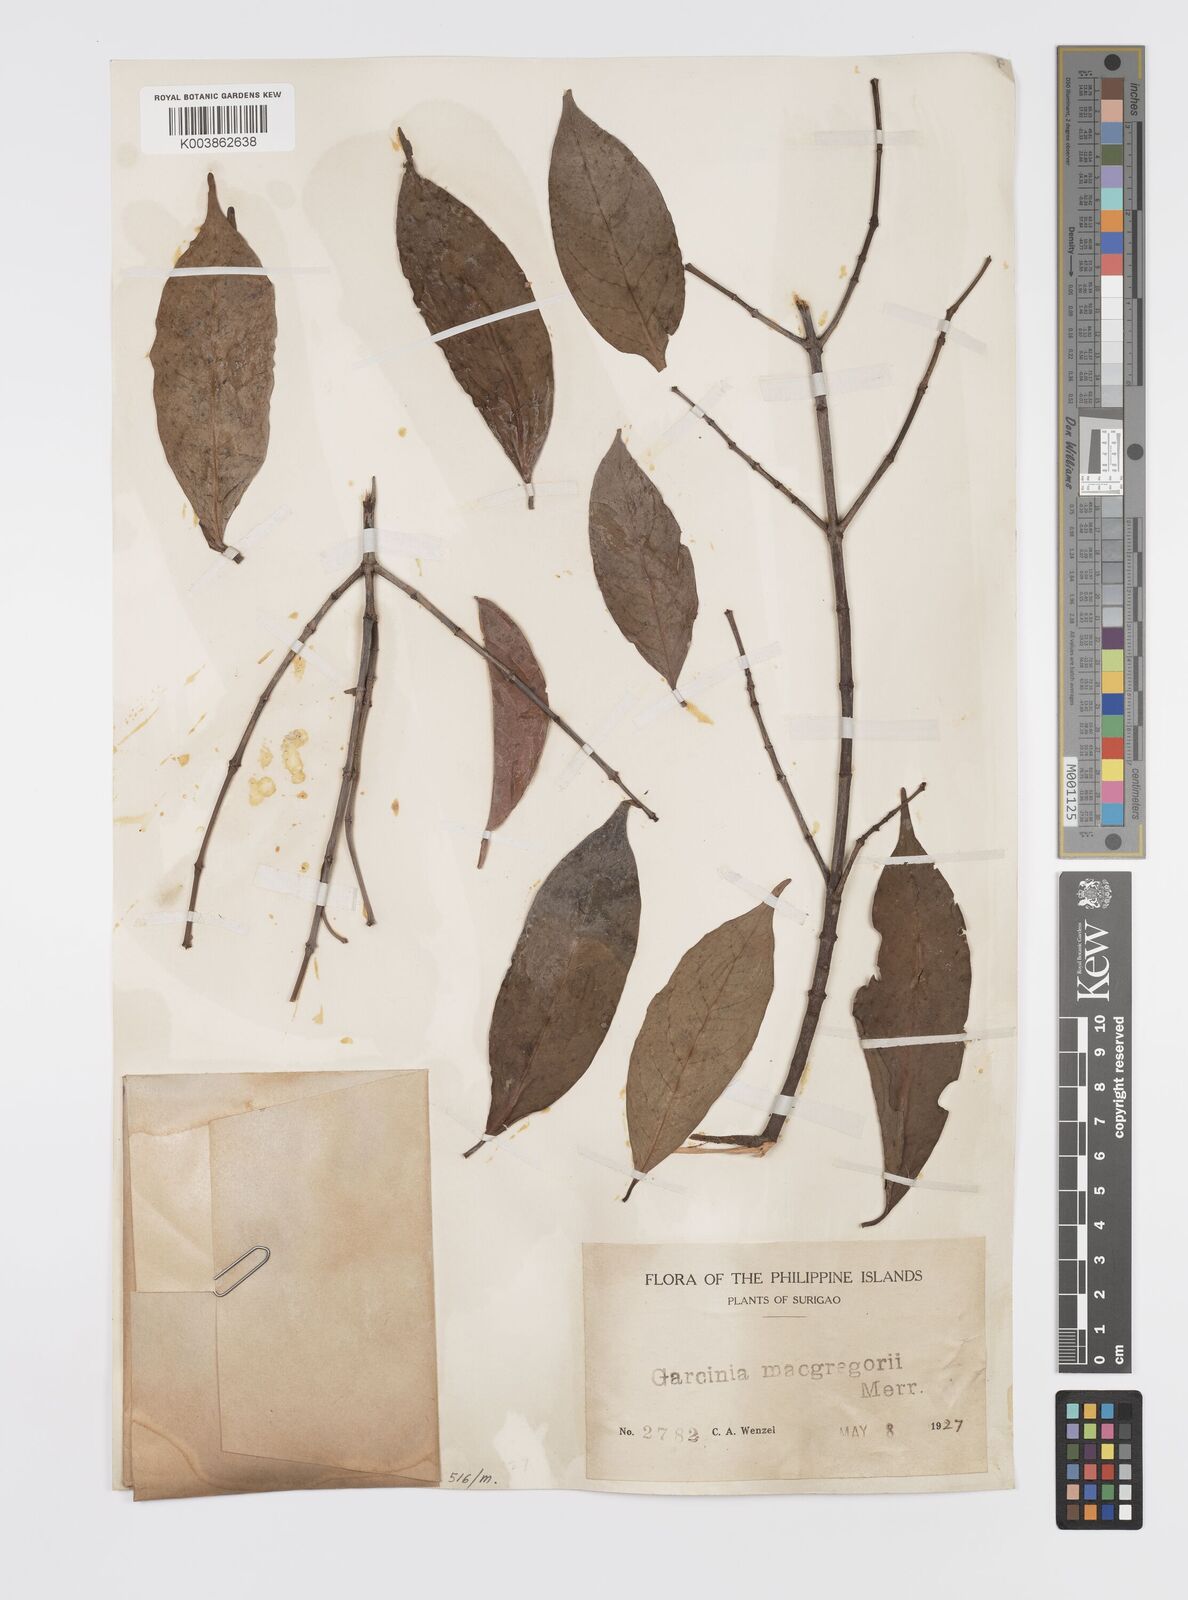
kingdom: Plantae
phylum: Tracheophyta
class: Magnoliopsida
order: Malpighiales
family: Clusiaceae
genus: Garcinia
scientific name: Garcinia macgregorii
